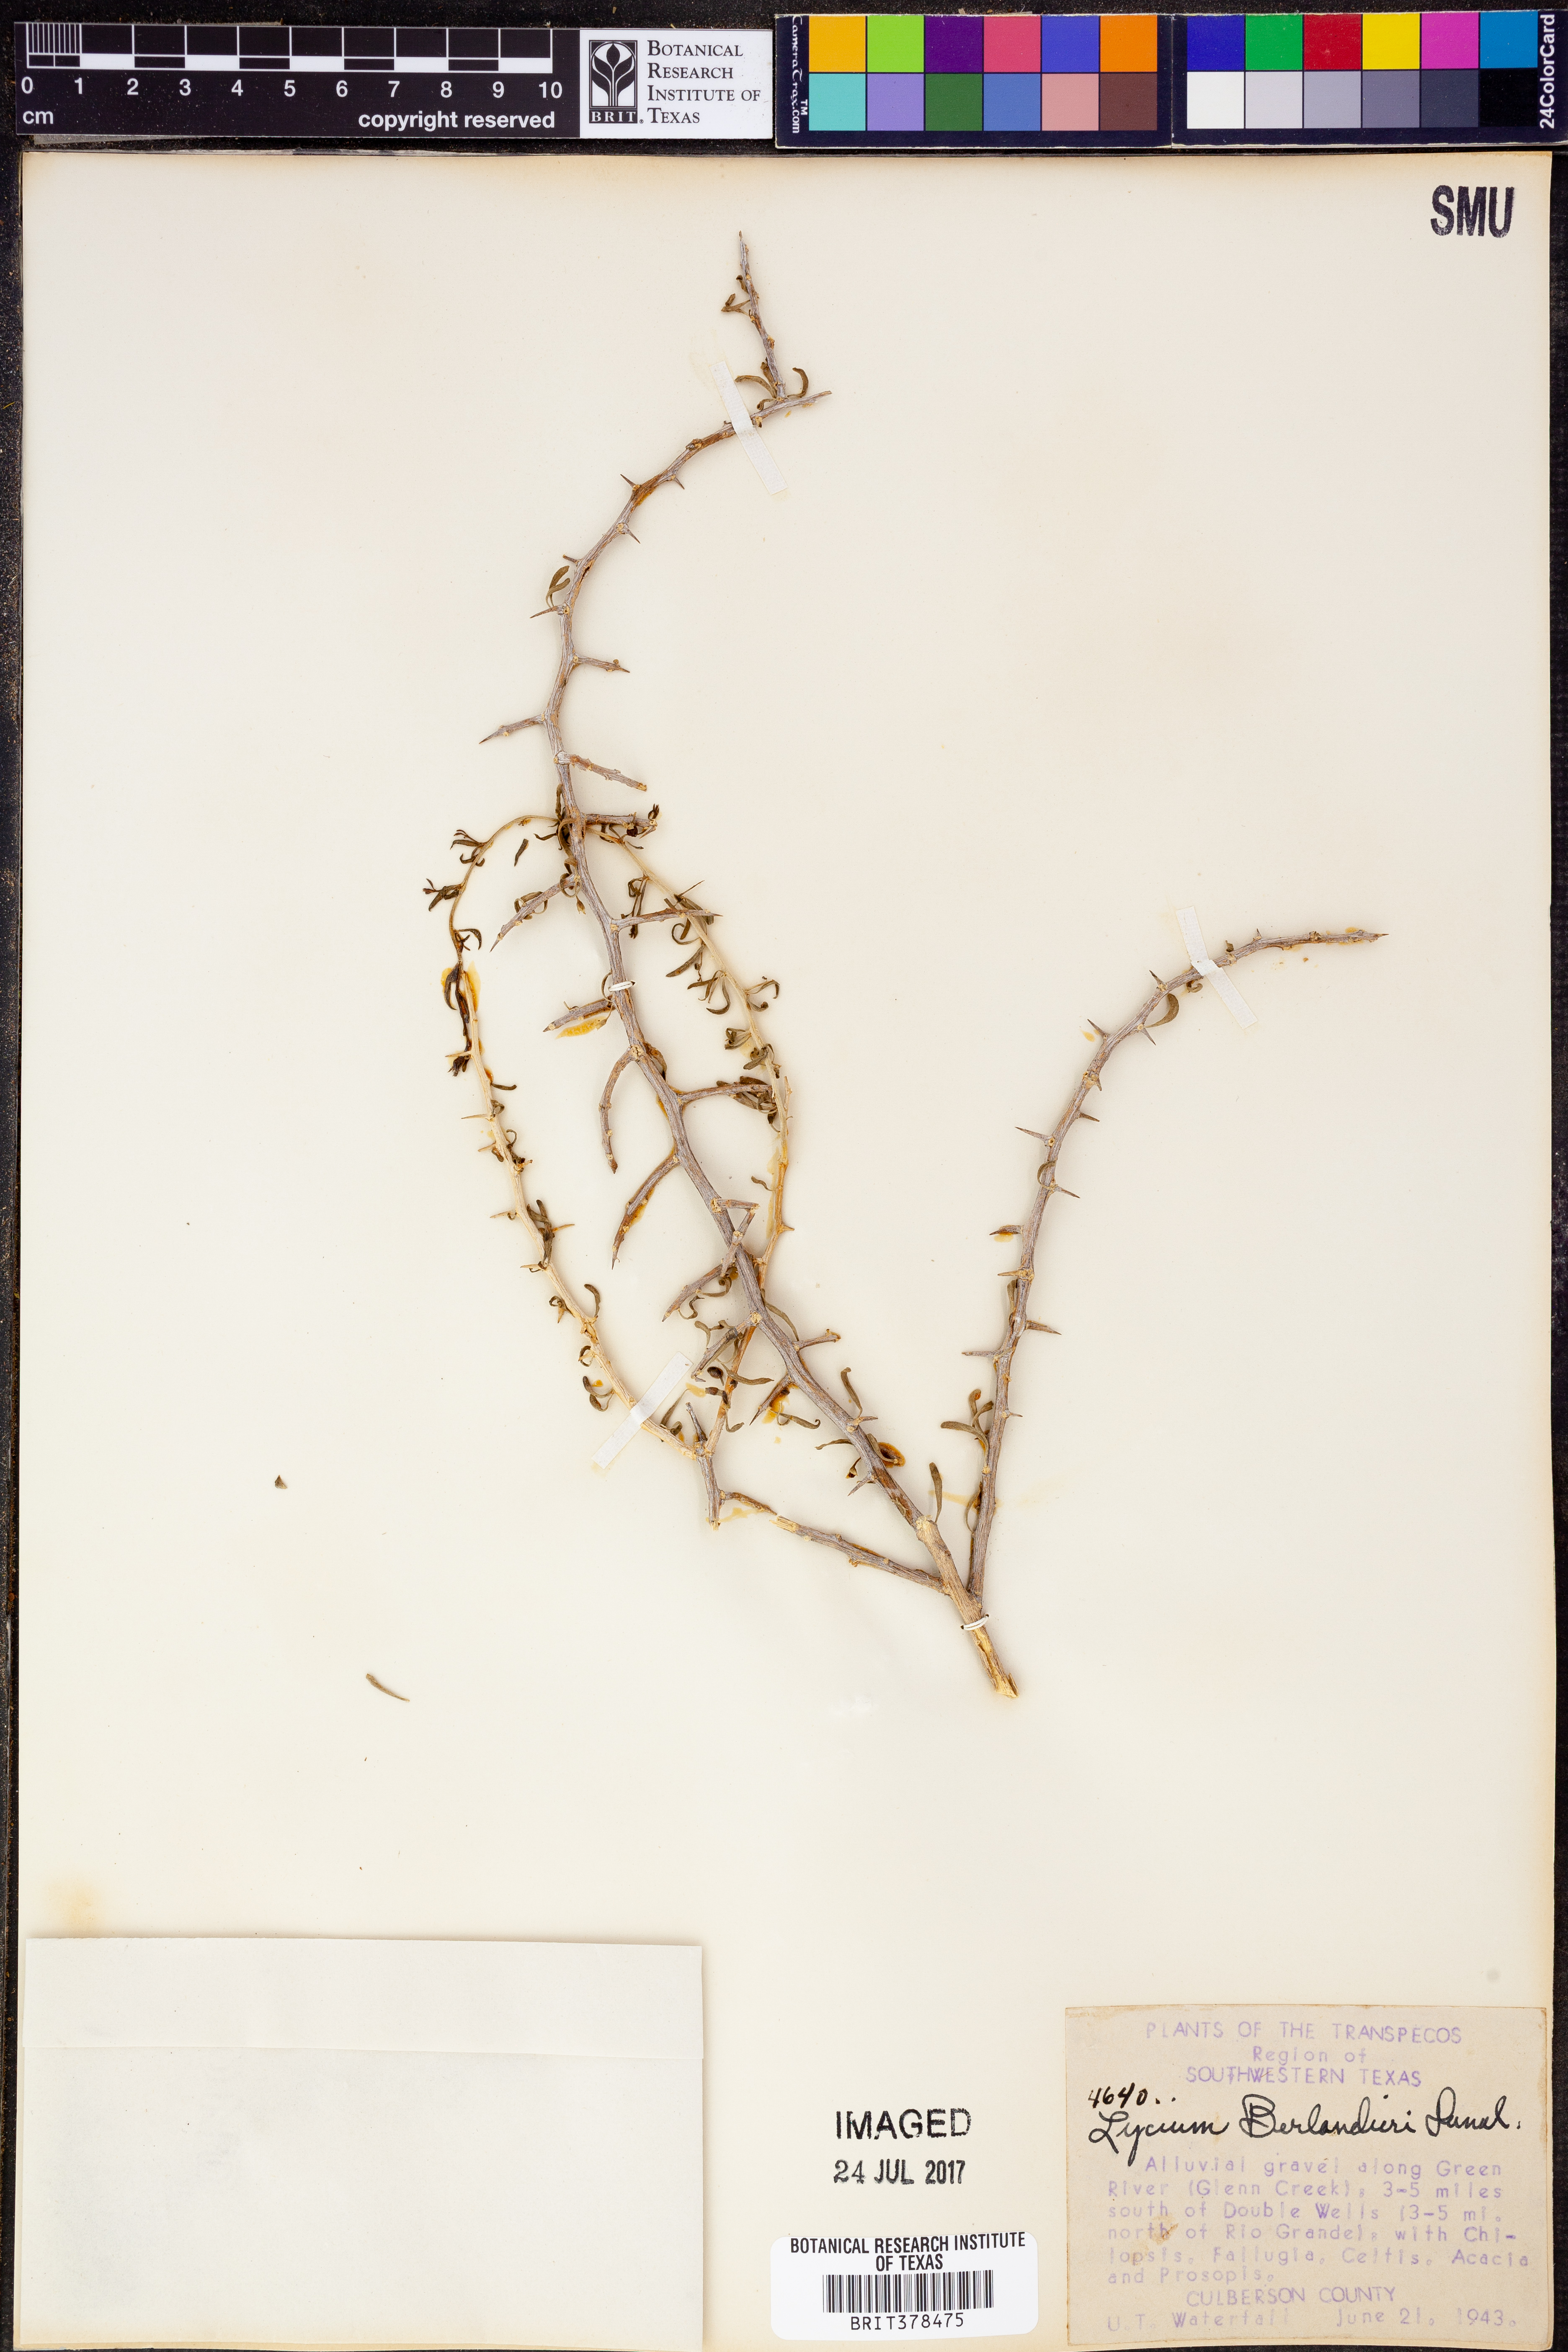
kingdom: Plantae
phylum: Tracheophyta
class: Magnoliopsida
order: Solanales
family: Solanaceae
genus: Lycium
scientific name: Lycium berlandieri
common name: Berlandier wolfberry
